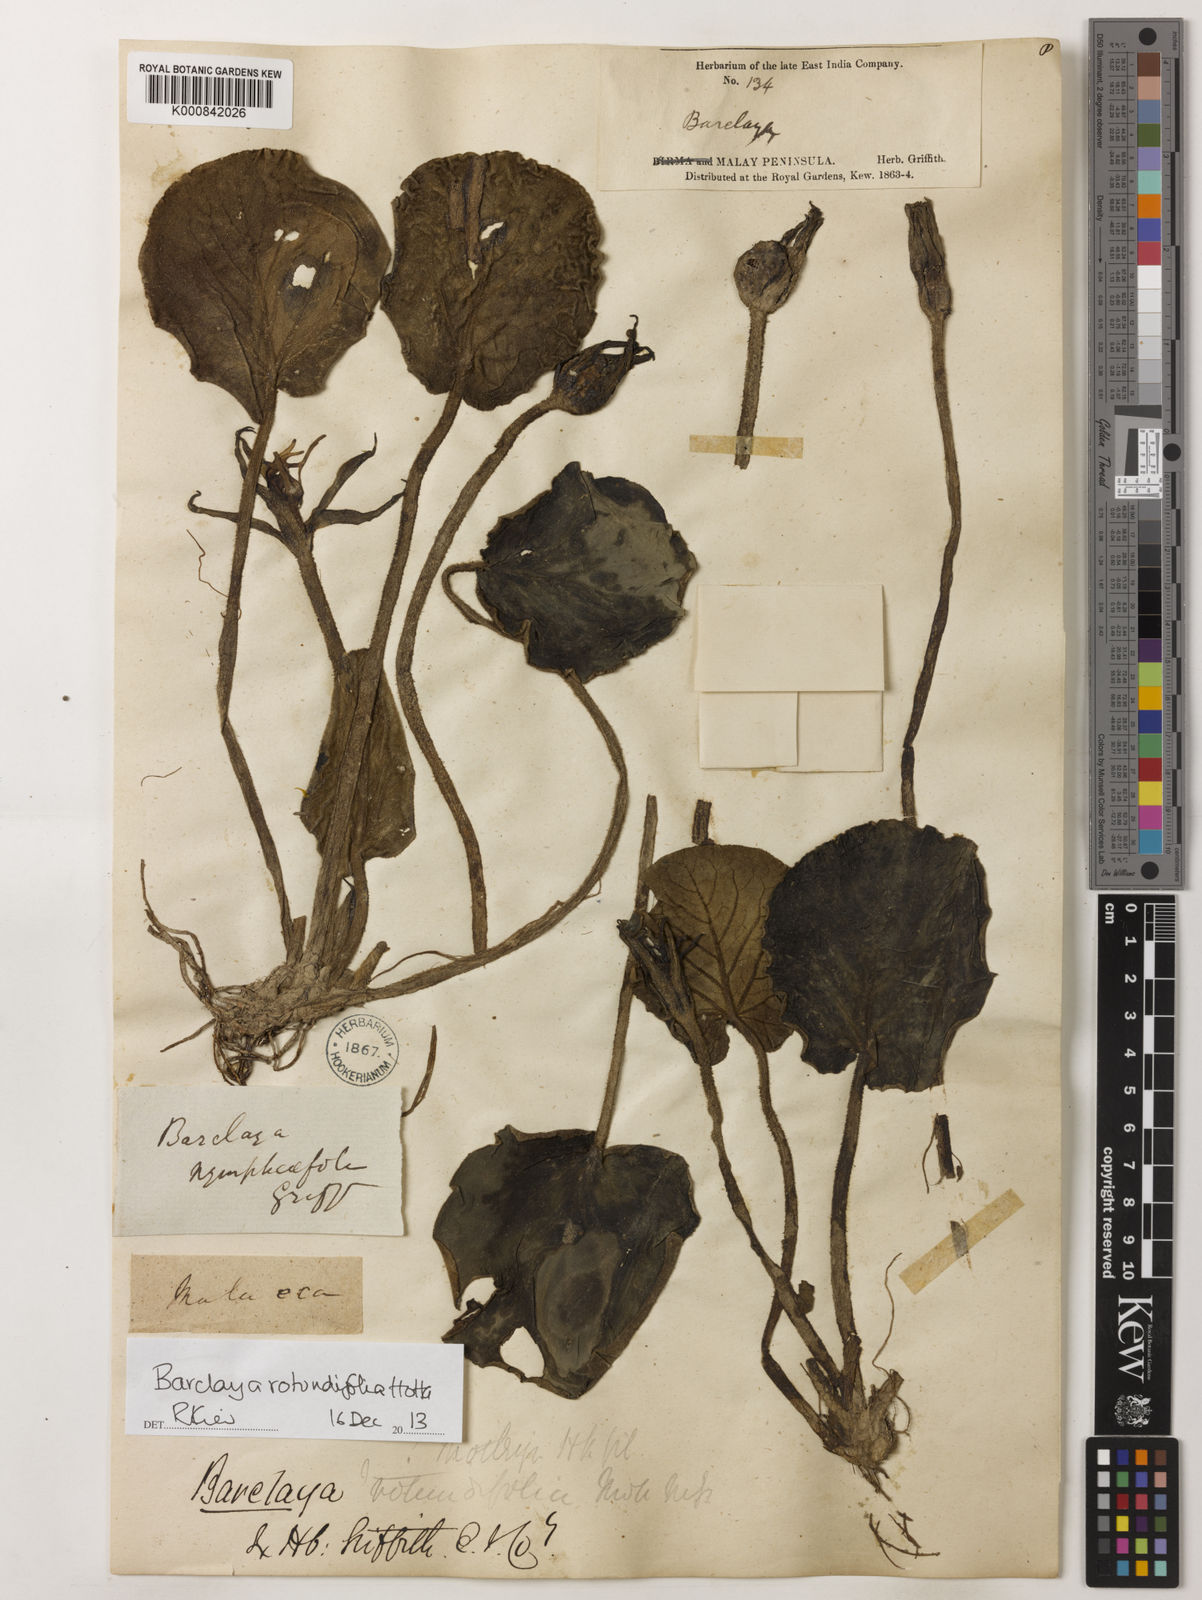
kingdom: Plantae
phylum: Tracheophyta
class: Magnoliopsida
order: Nymphaeales
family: Nymphaeaceae
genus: Barclaya
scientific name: Barclaya rotundifolia
